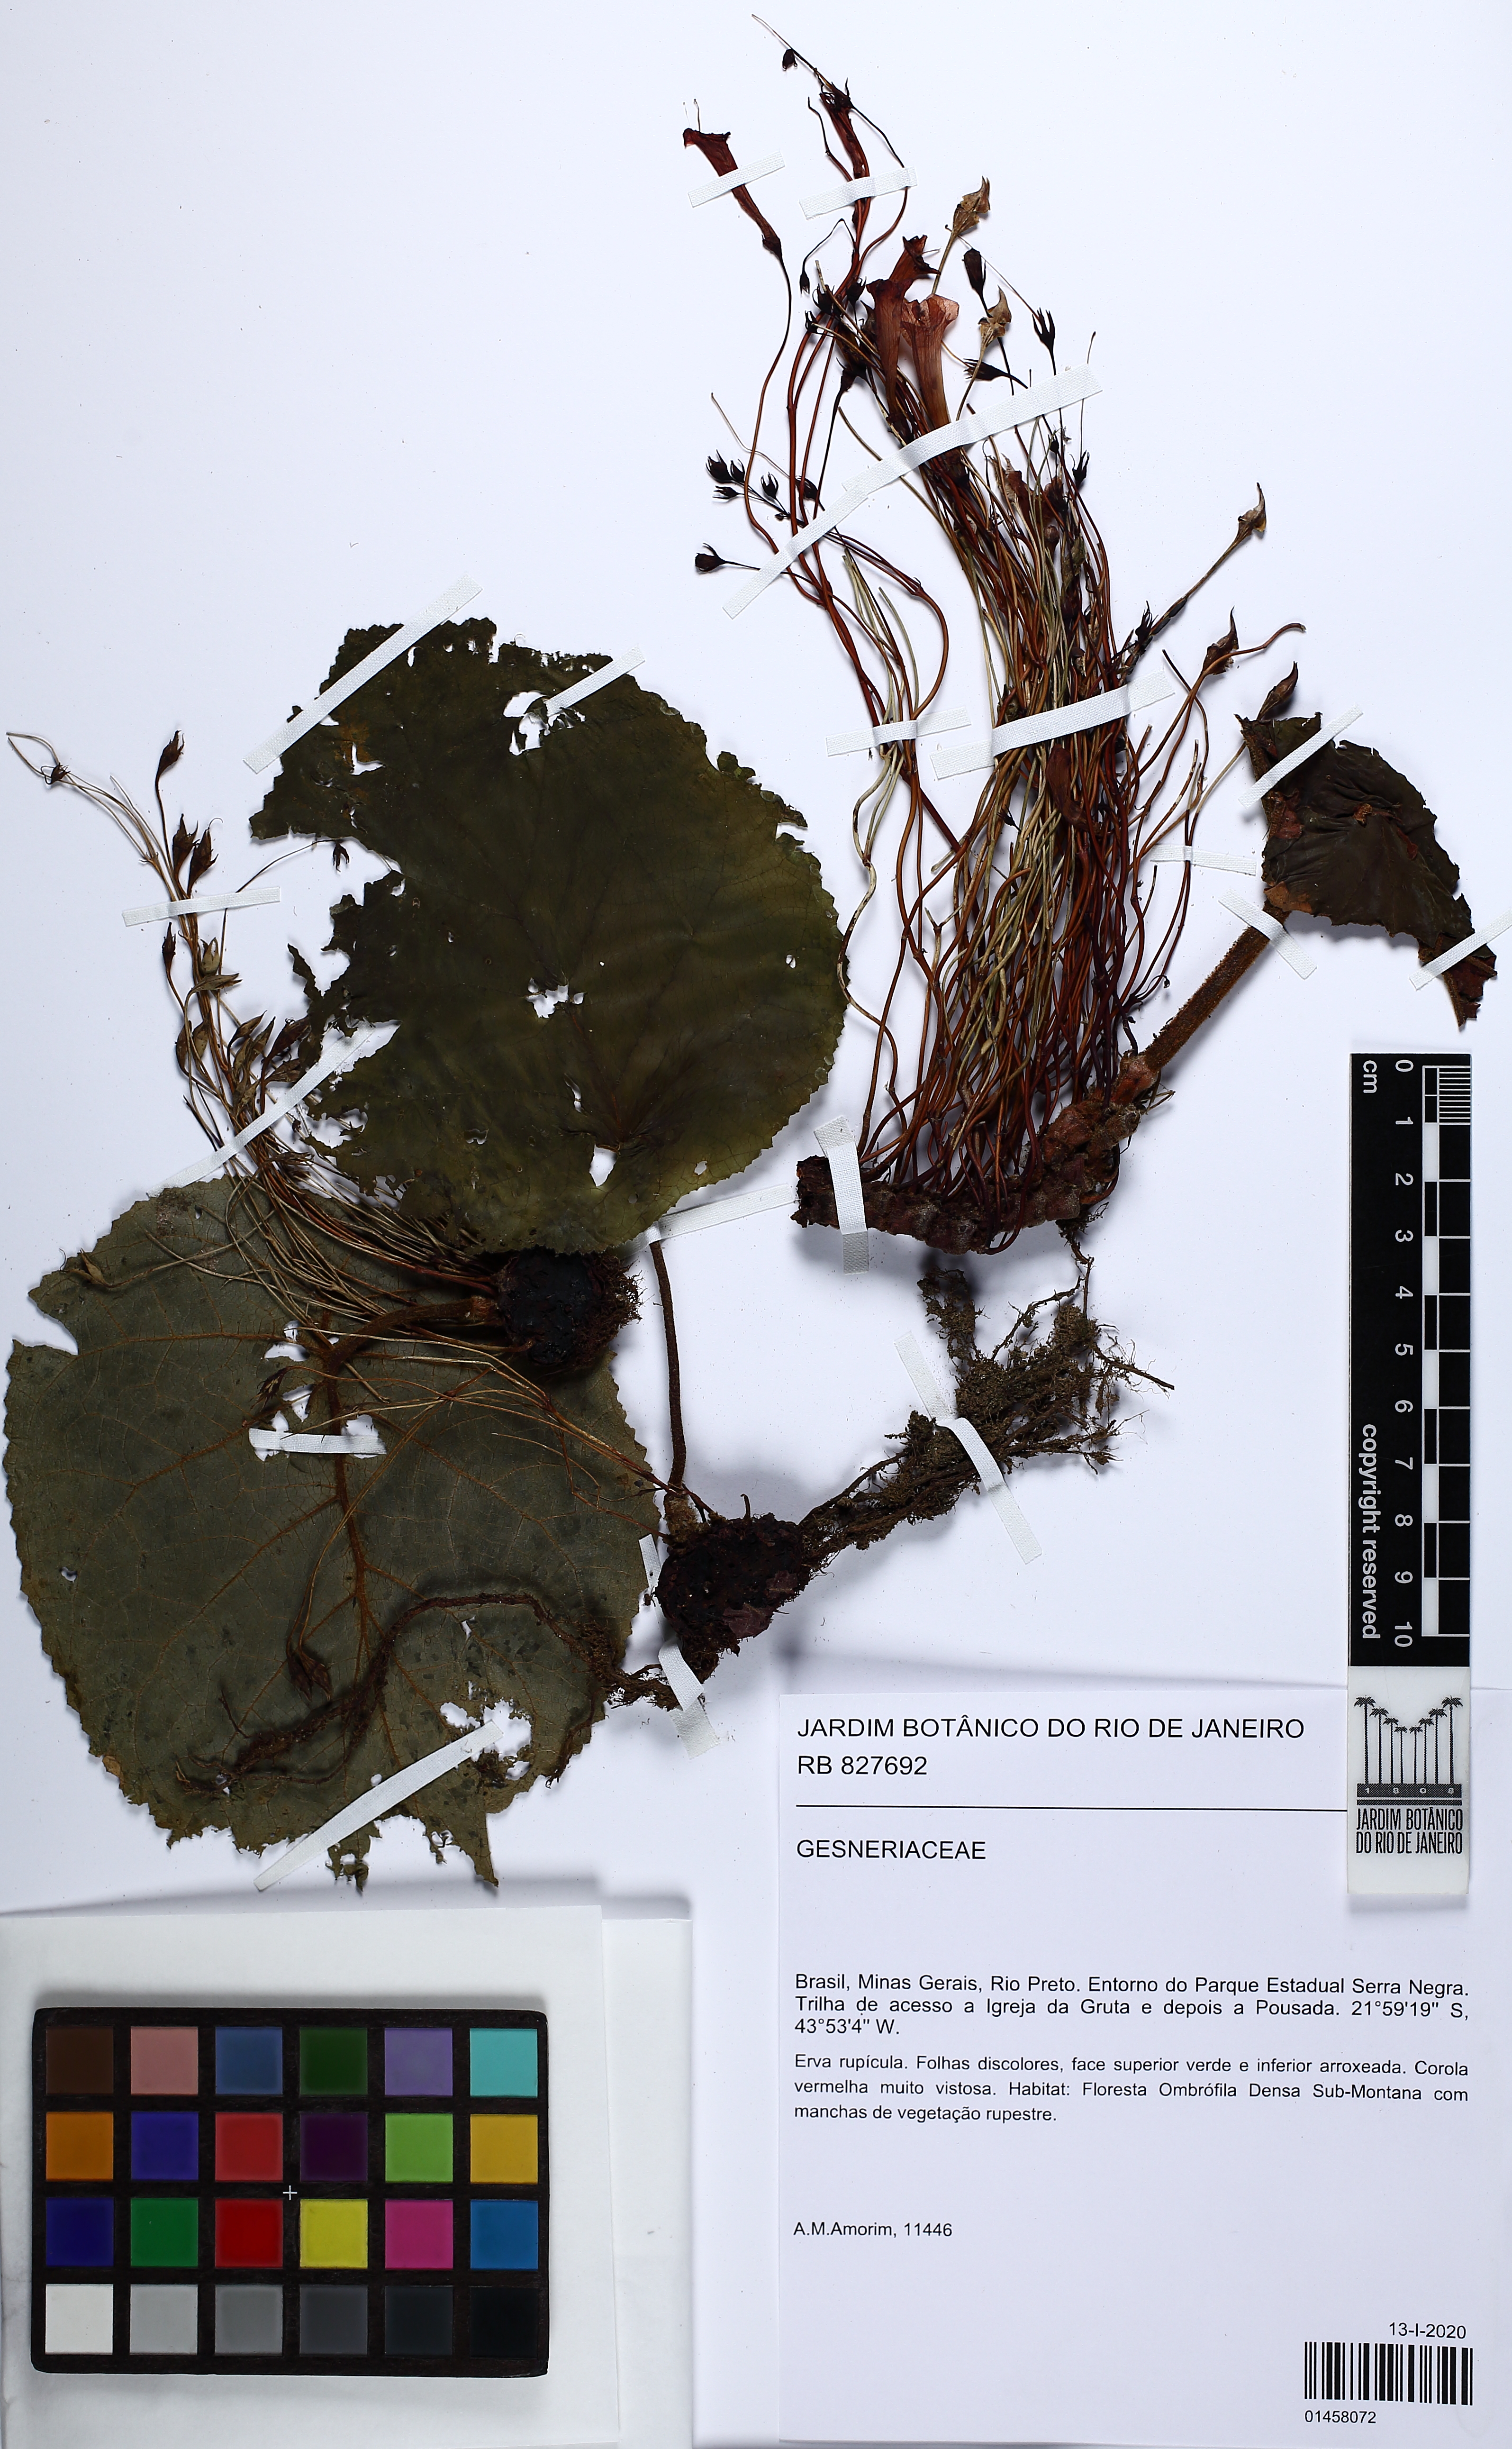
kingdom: Plantae
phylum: Tracheophyta
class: Magnoliopsida
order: Lamiales
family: Gesneriaceae
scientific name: Gesneriaceae
